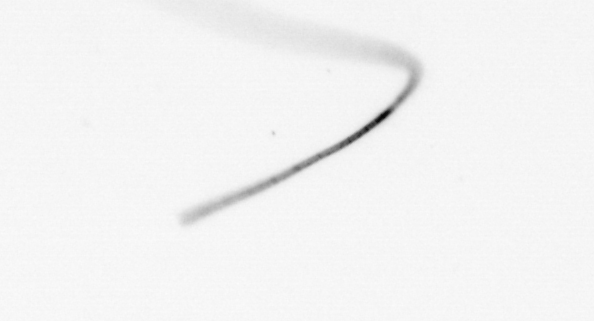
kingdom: Chromista
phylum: Ochrophyta
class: Bacillariophyceae
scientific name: Bacillariophyceae
